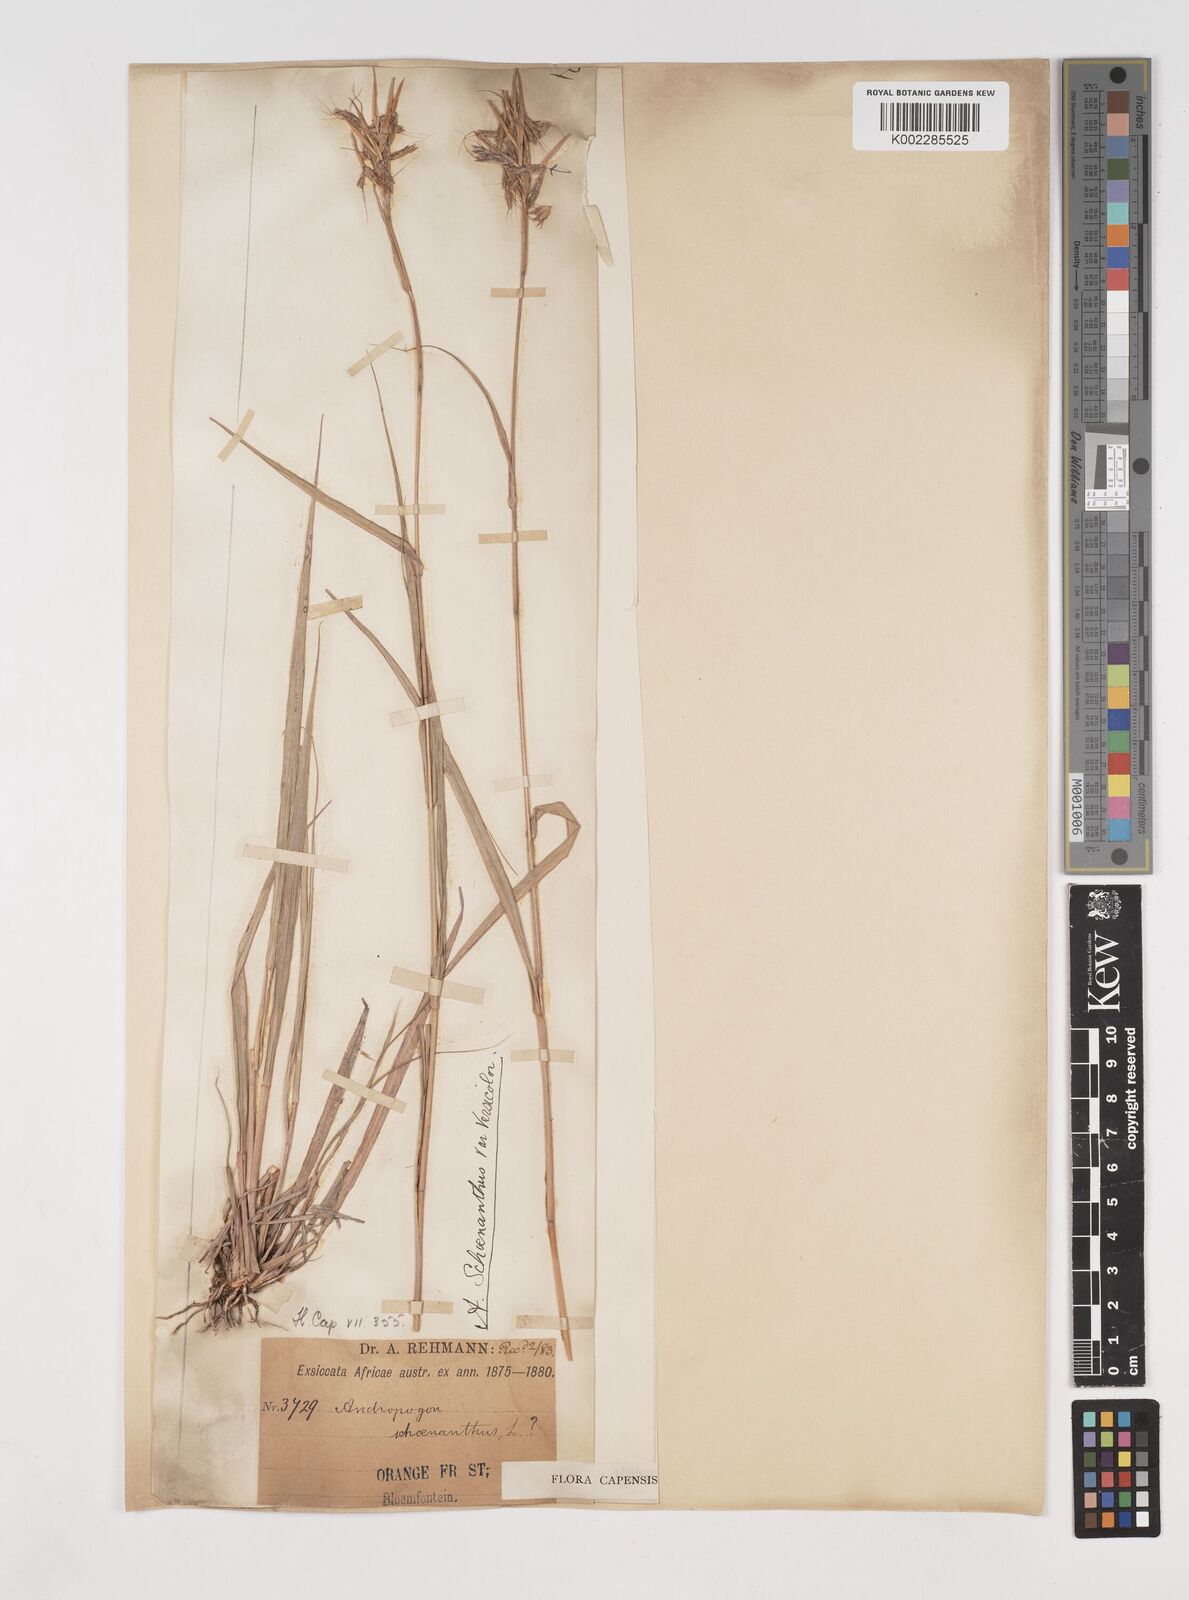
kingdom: Plantae
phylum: Tracheophyta
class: Liliopsida
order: Poales
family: Poaceae
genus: Cymbopogon
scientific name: Cymbopogon caesius
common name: Kachi grass
